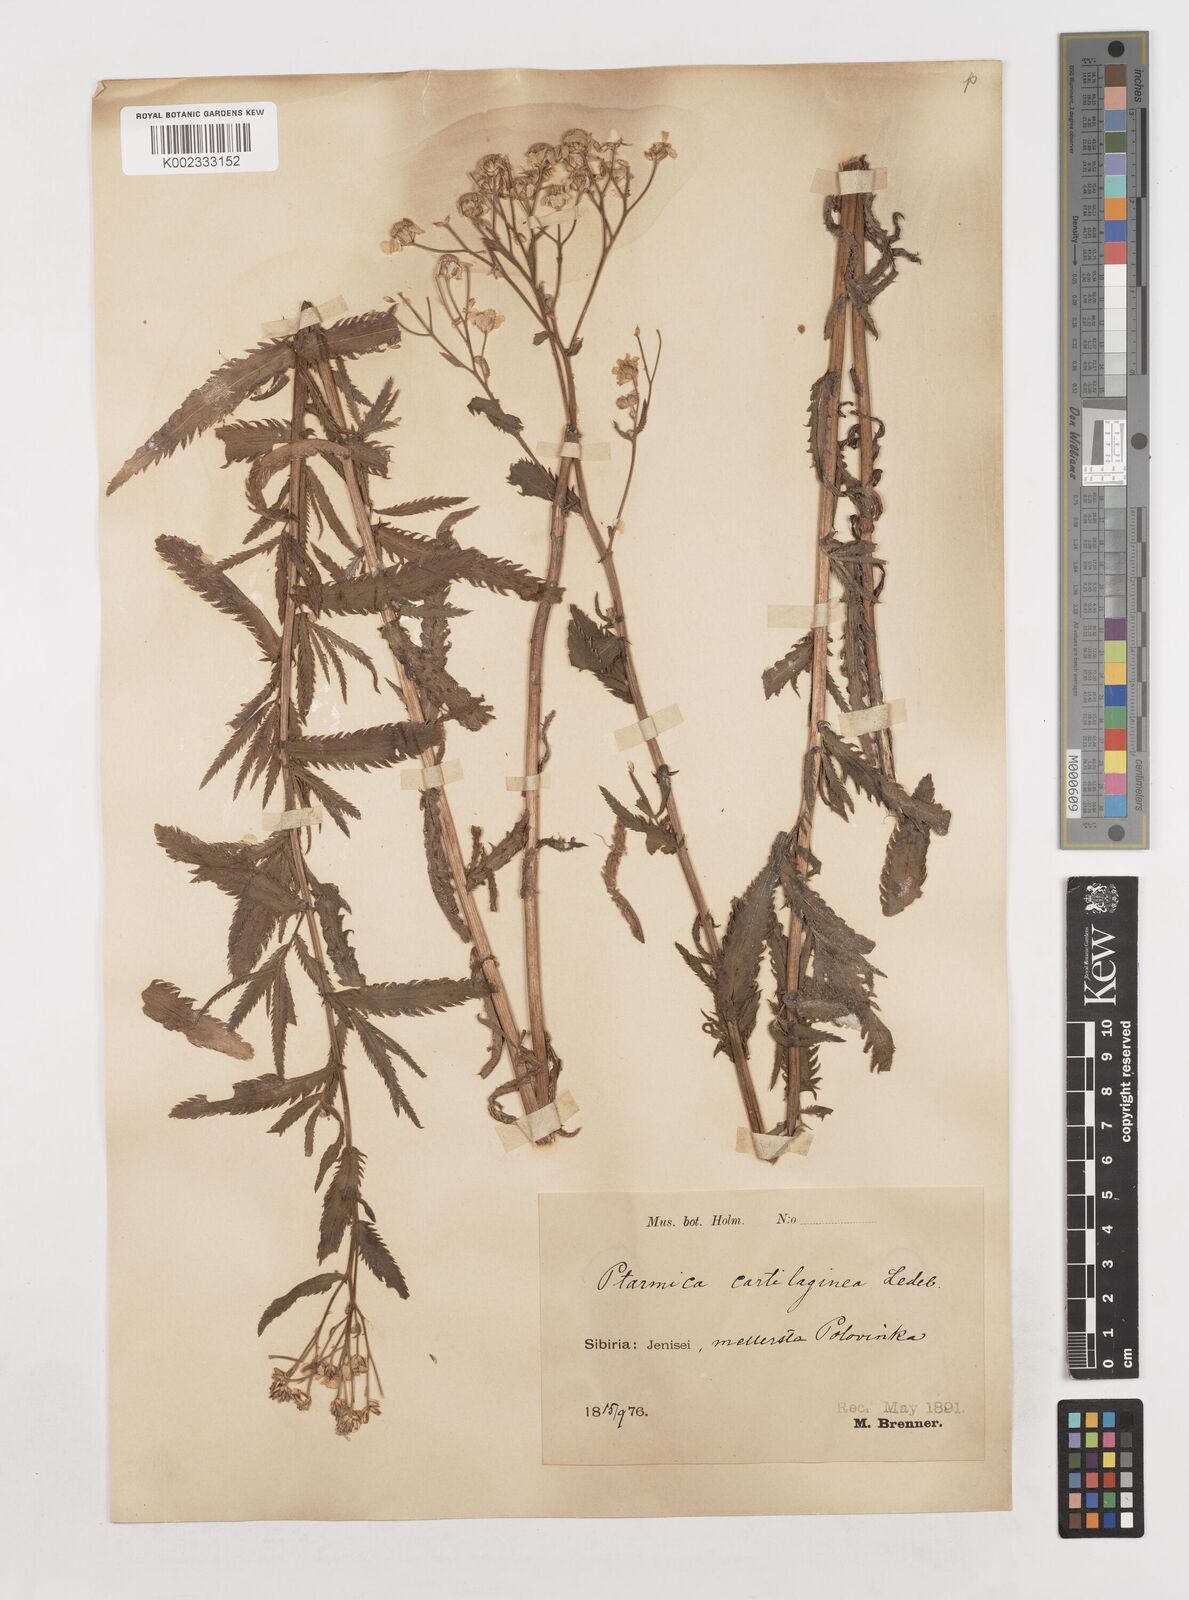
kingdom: Plantae
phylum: Tracheophyta
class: Magnoliopsida
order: Asterales
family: Asteraceae
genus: Achillea
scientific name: Achillea salicifolia
